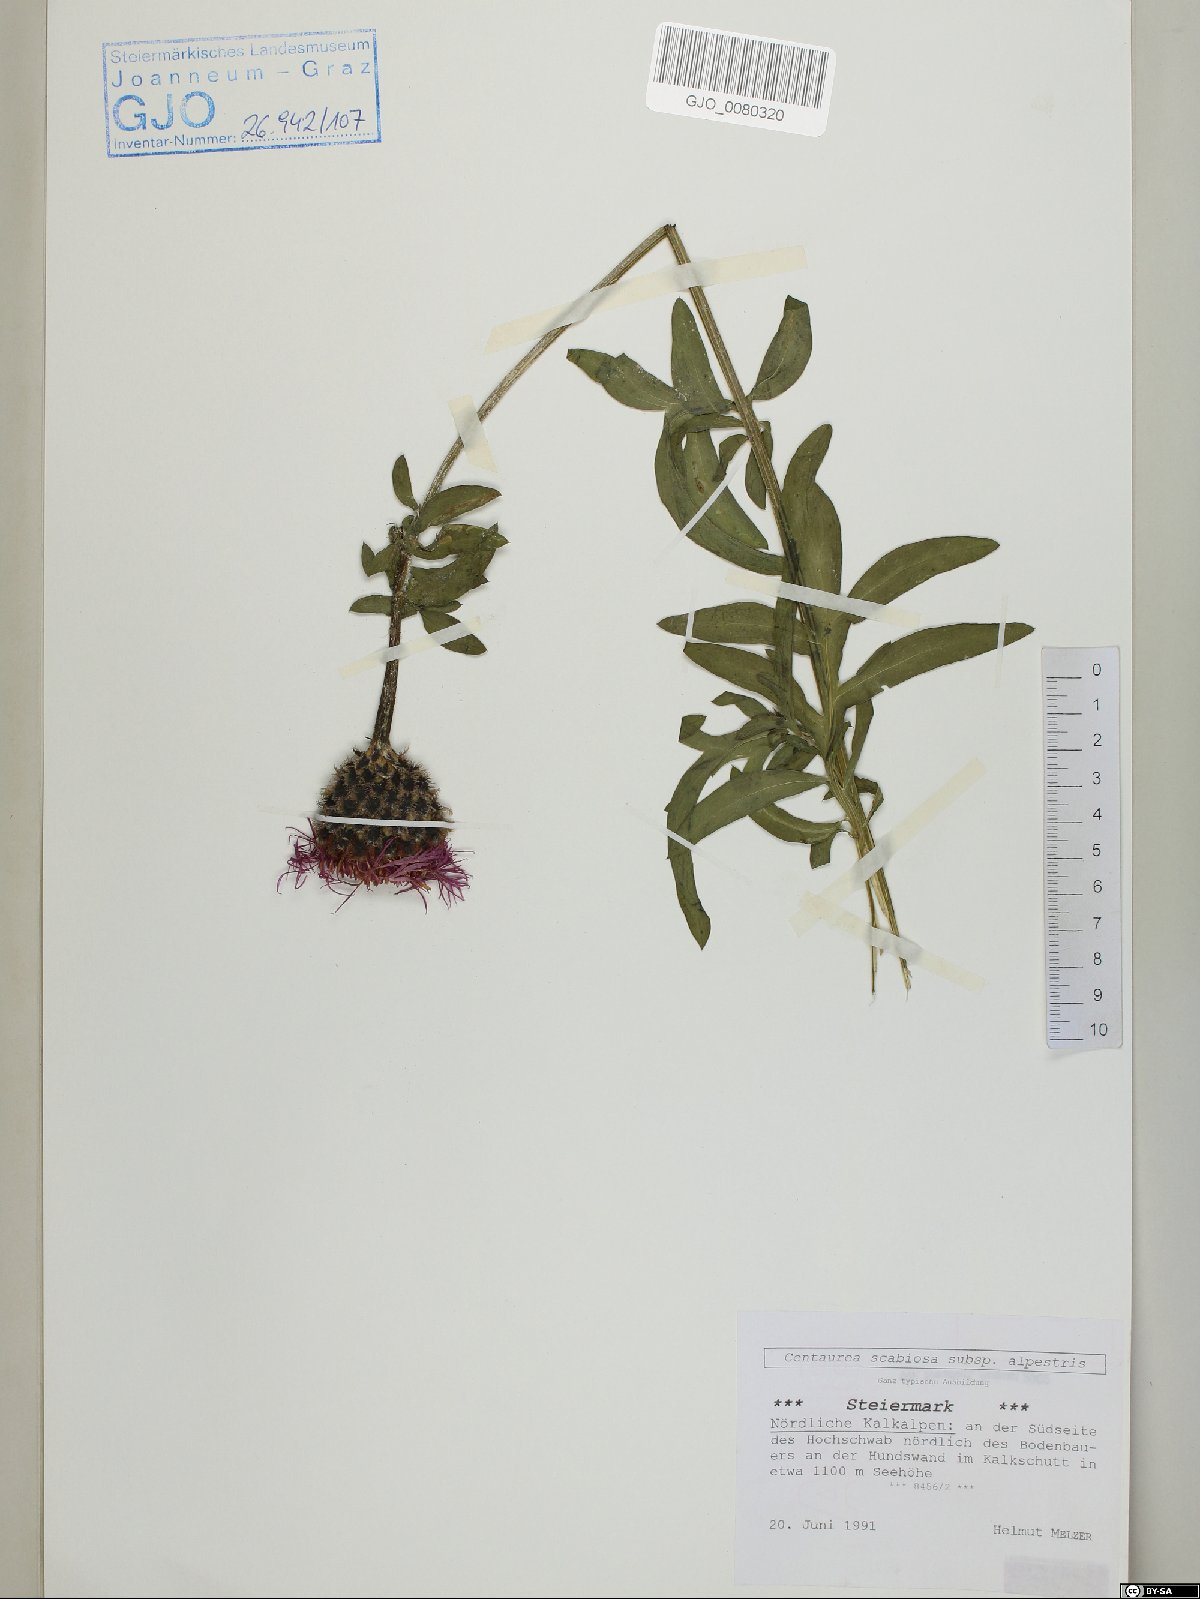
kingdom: Plantae
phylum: Tracheophyta
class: Magnoliopsida
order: Asterales
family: Asteraceae
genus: Centaurea
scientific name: Centaurea scabiosa
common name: Greater knapweed
